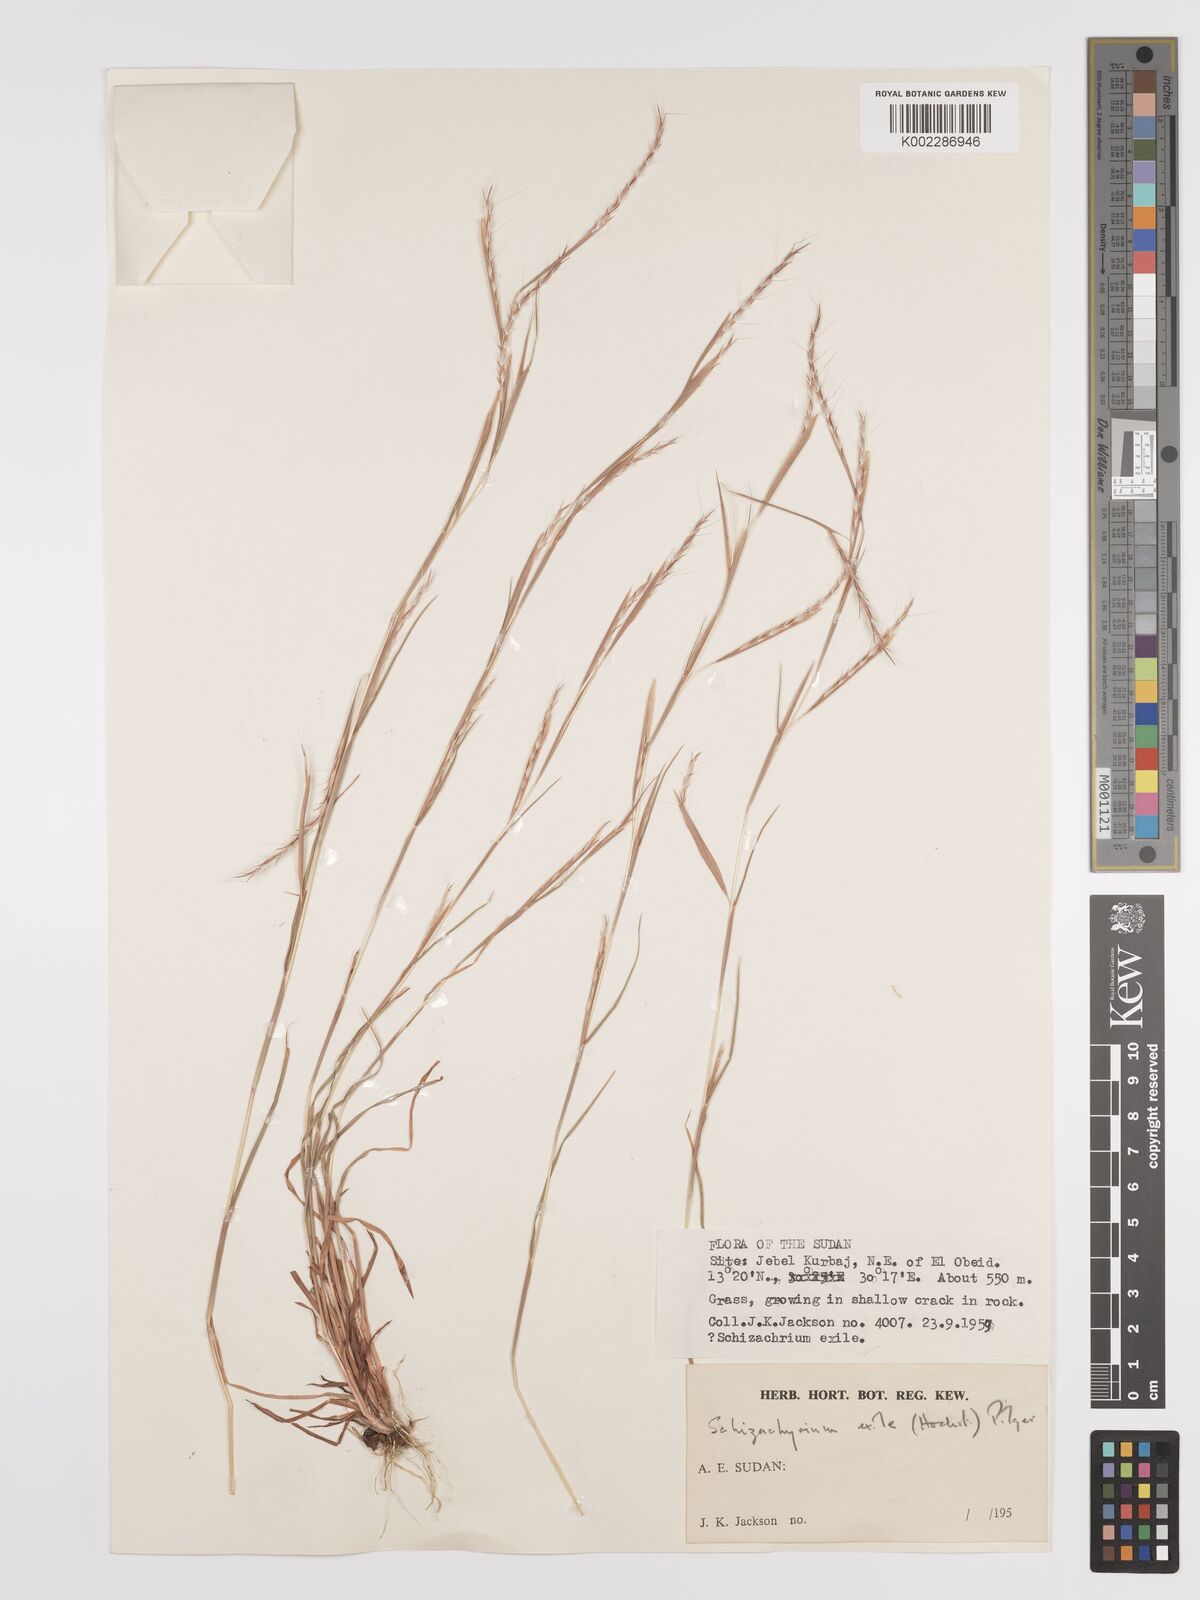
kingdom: Plantae
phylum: Tracheophyta
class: Liliopsida
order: Poales
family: Poaceae
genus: Schizachyrium
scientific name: Schizachyrium exile
